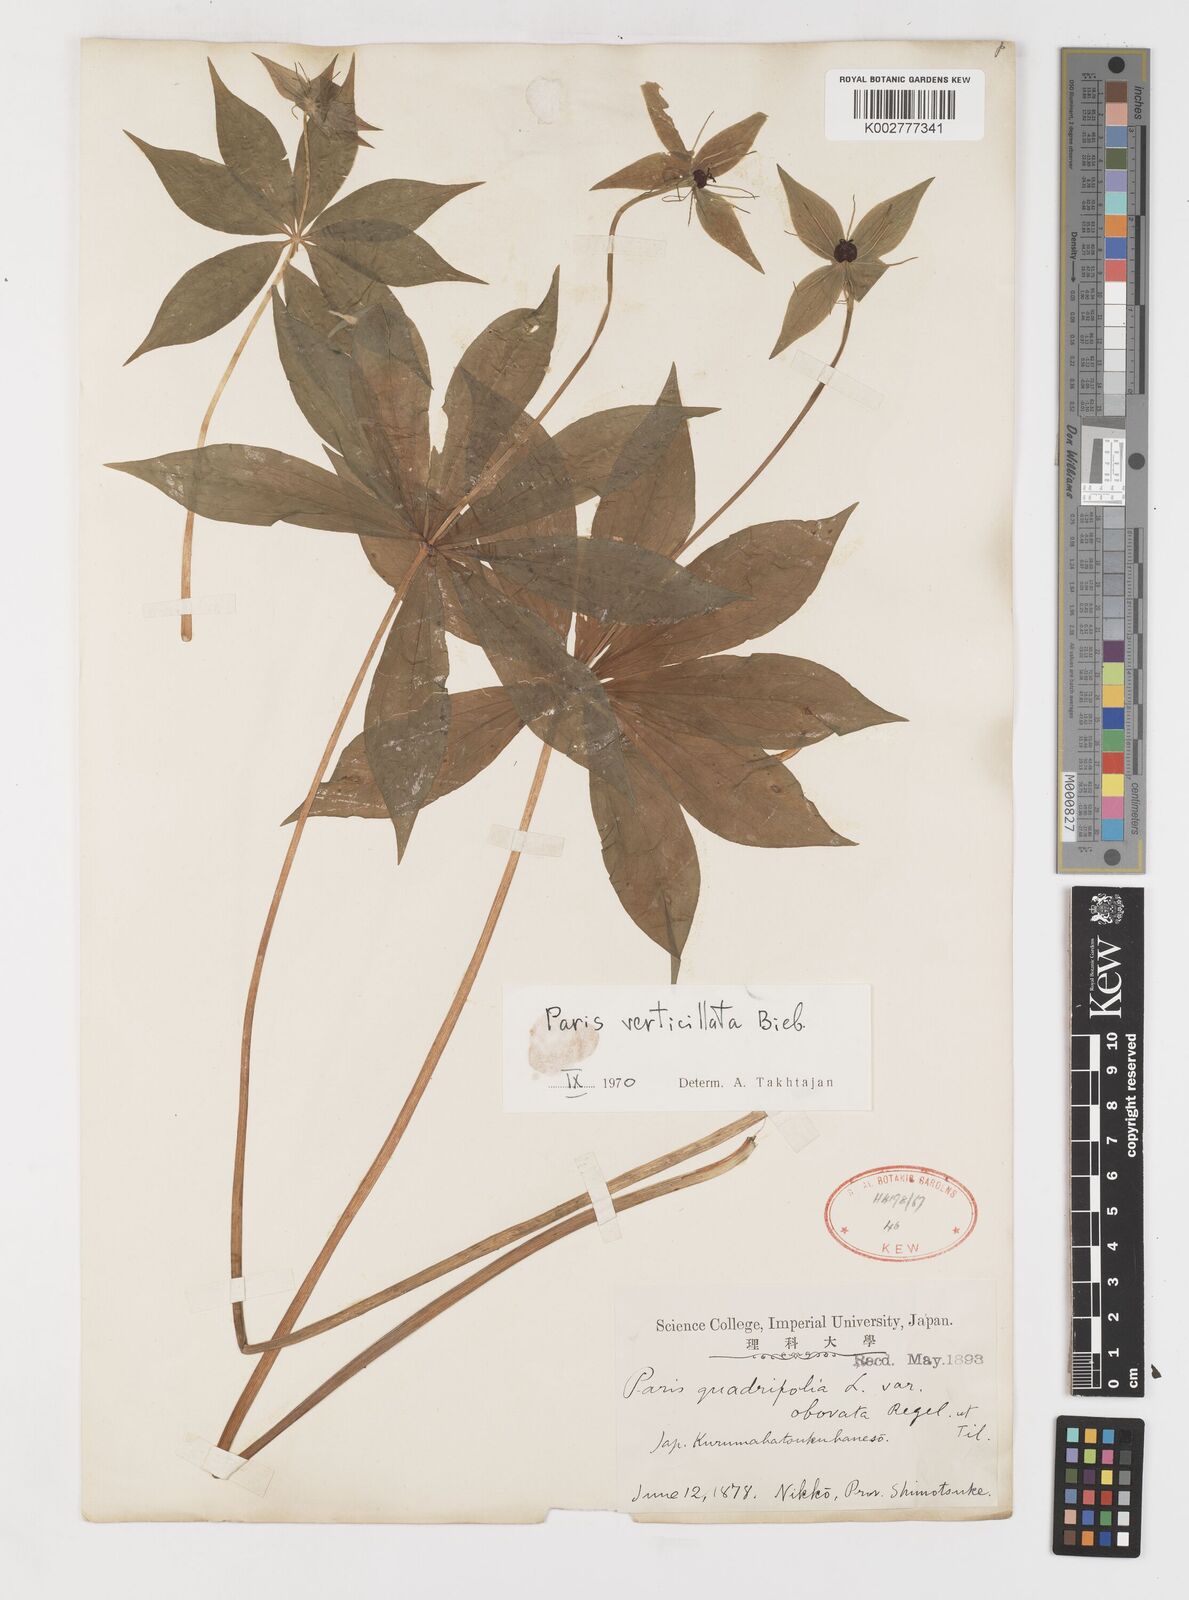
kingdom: Plantae
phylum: Tracheophyta
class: Liliopsida
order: Liliales
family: Melanthiaceae
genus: Paris
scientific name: Paris verticillata
